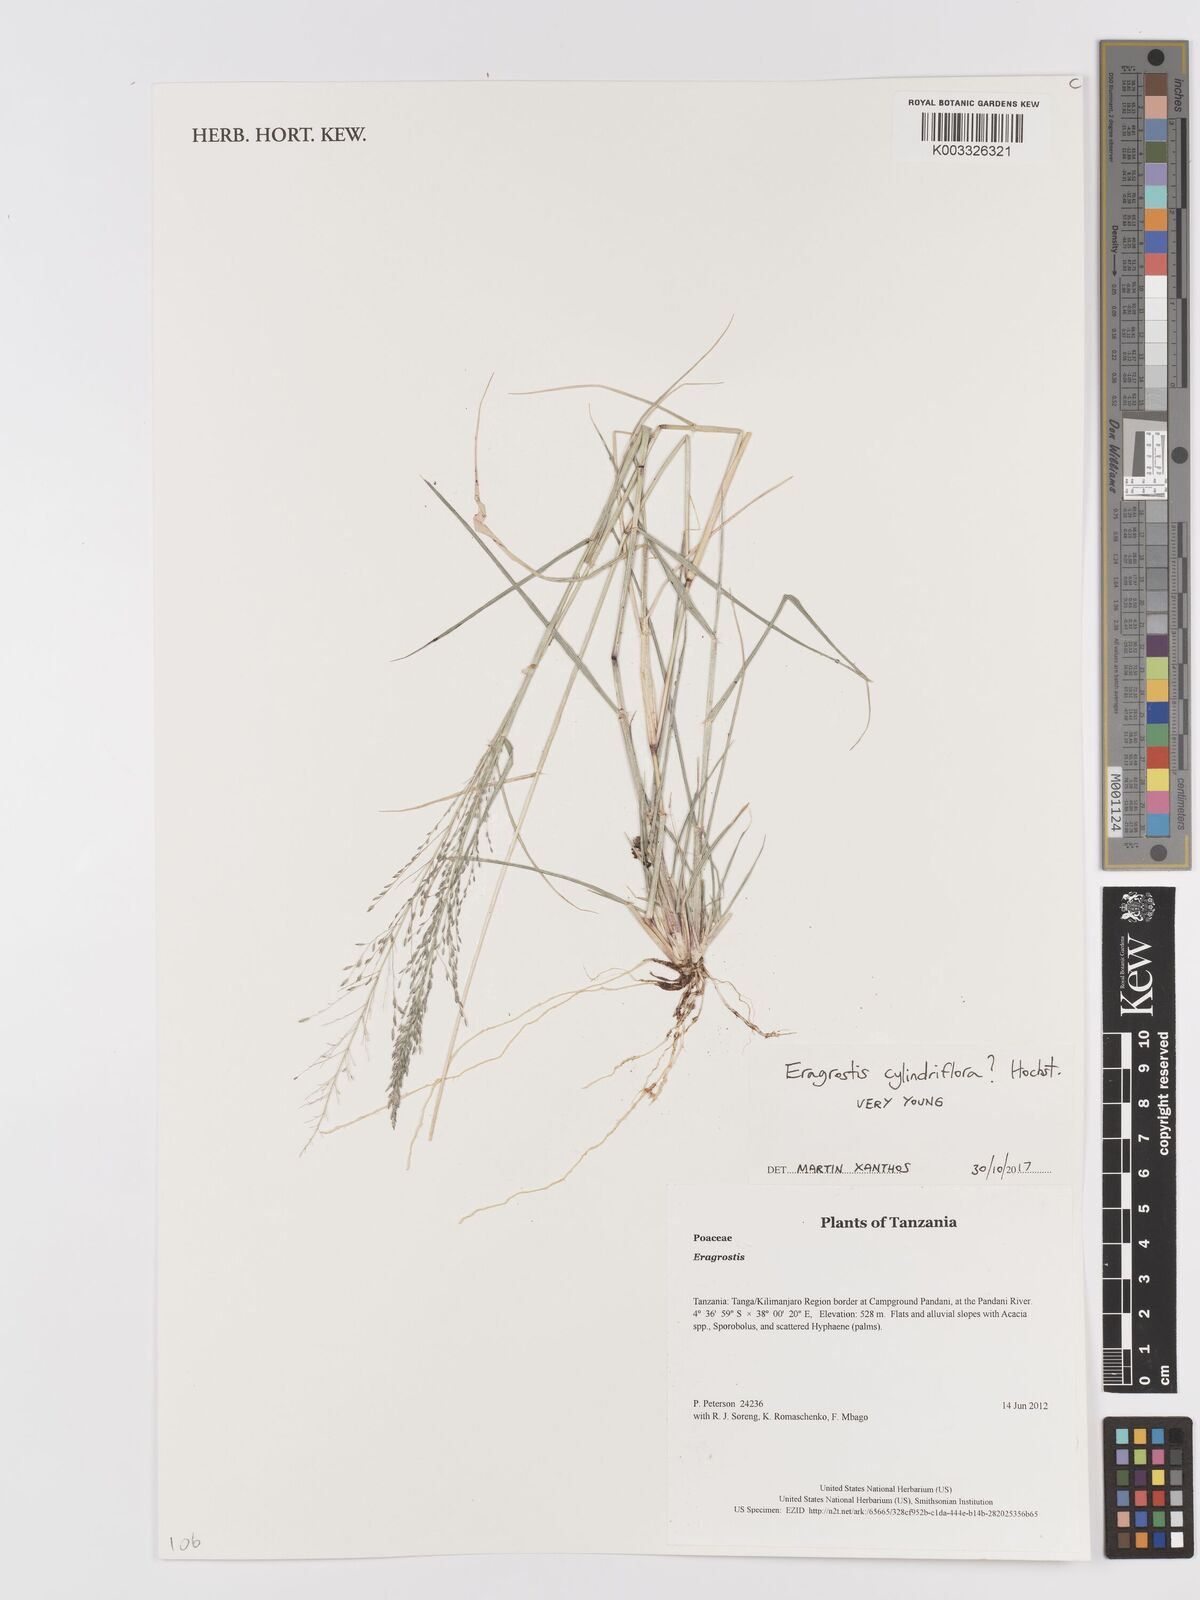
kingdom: Plantae
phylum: Tracheophyta
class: Liliopsida
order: Poales
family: Poaceae
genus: Eragrostis
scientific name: Eragrostis cylindriflora
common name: Cylinderflower lovegrass
